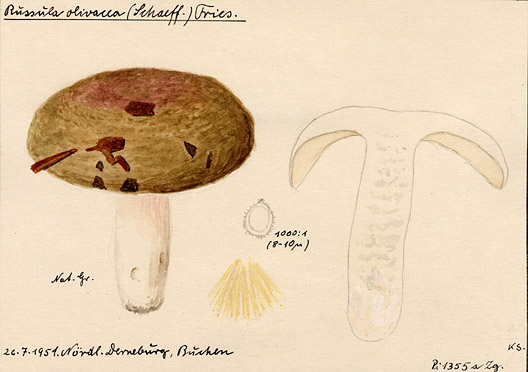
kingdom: Fungi
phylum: Basidiomycota
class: Agaricomycetes
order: Russulales
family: Russulaceae
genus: Russula
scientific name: Russula olivacea
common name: Olive brittlegill
